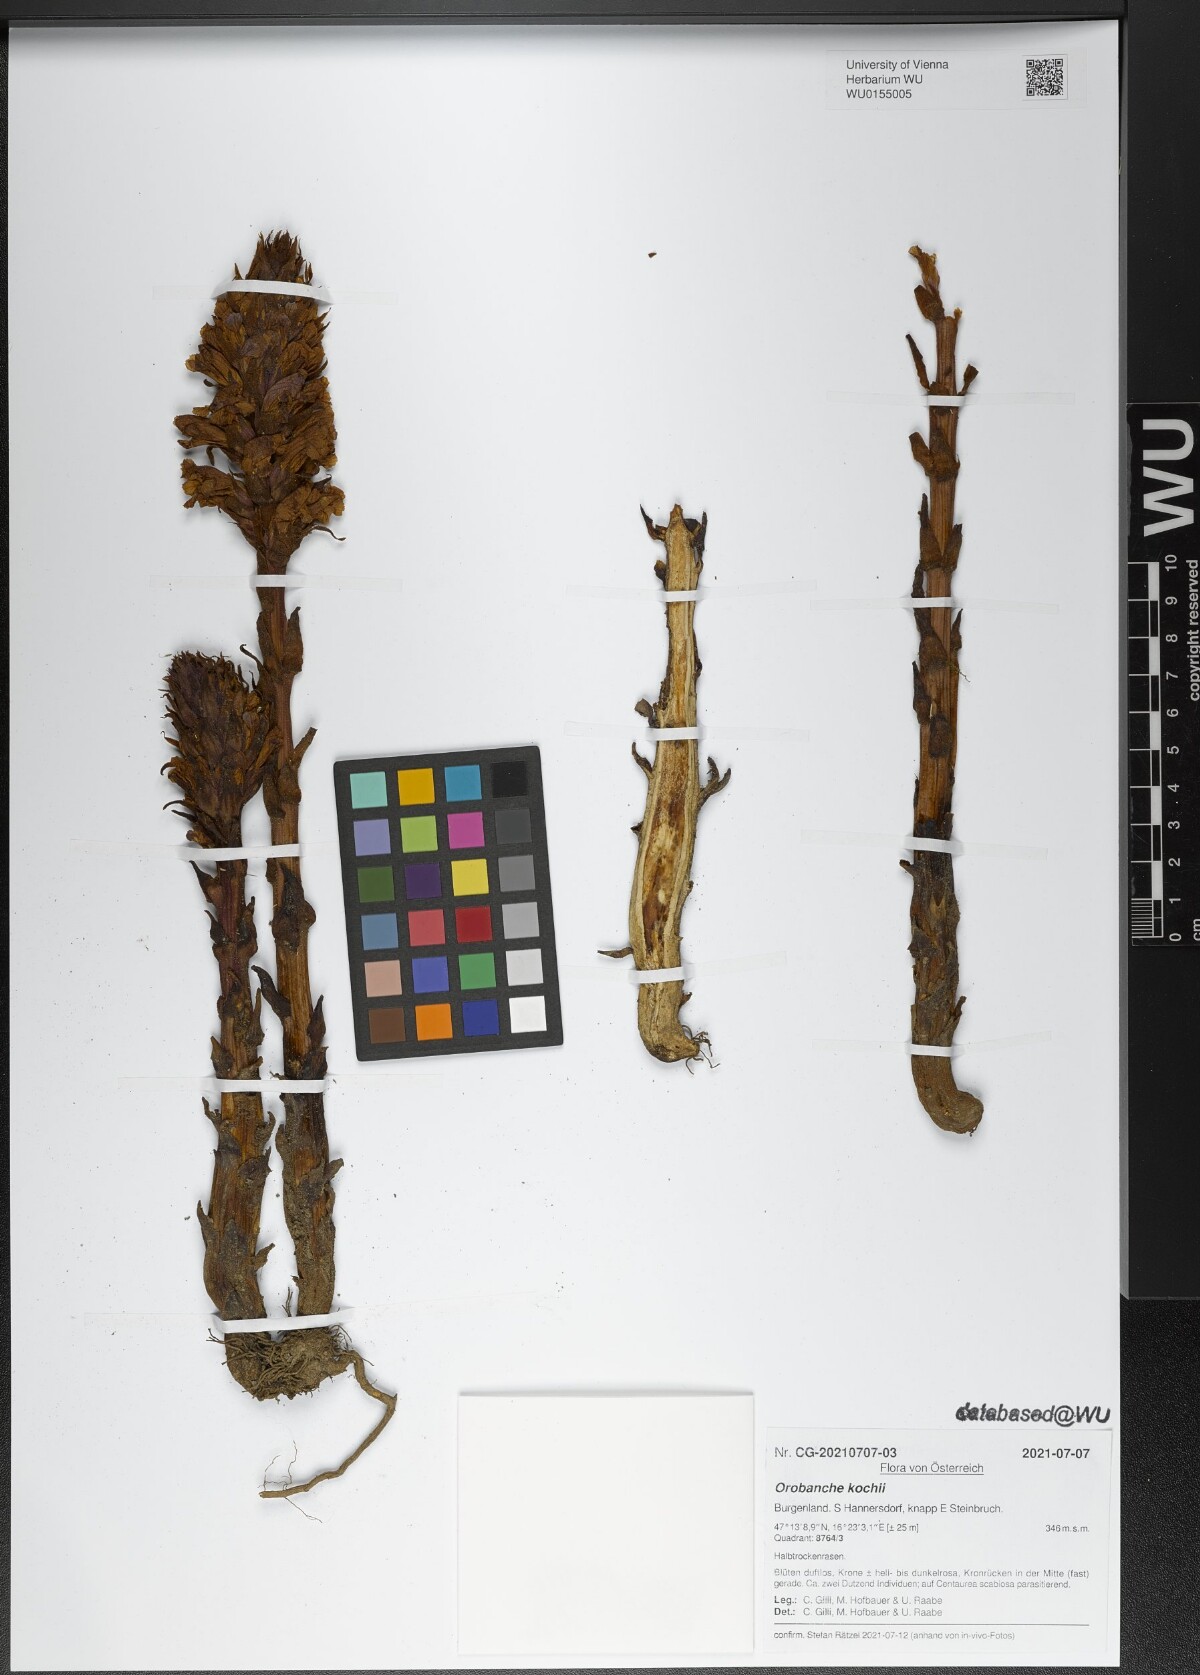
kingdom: Plantae
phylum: Tracheophyta
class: Magnoliopsida
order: Lamiales
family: Orobanchaceae
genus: Orobanche
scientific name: Orobanche centaurina
